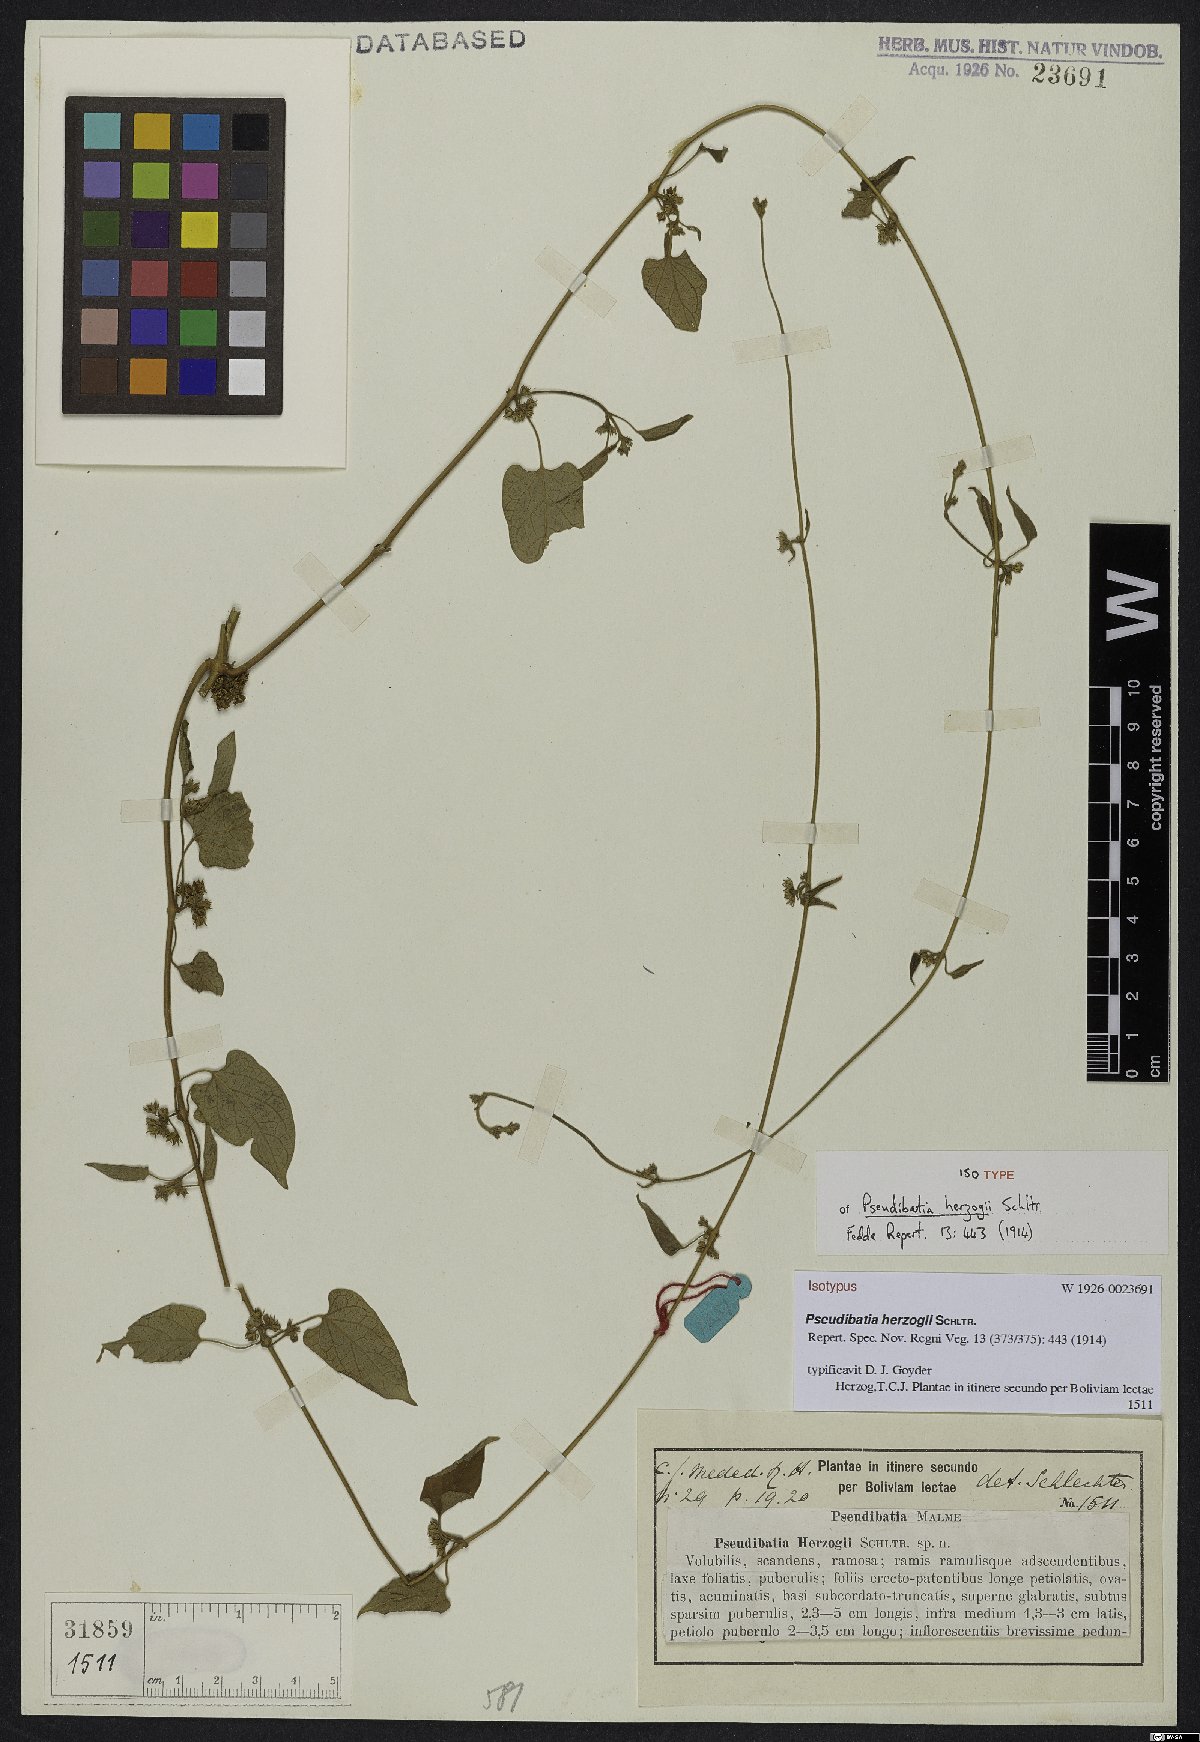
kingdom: Plantae
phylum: Tracheophyta
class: Magnoliopsida
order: Gentianales
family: Apocynaceae
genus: Gonolobus
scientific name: Gonolobus parviflorus
